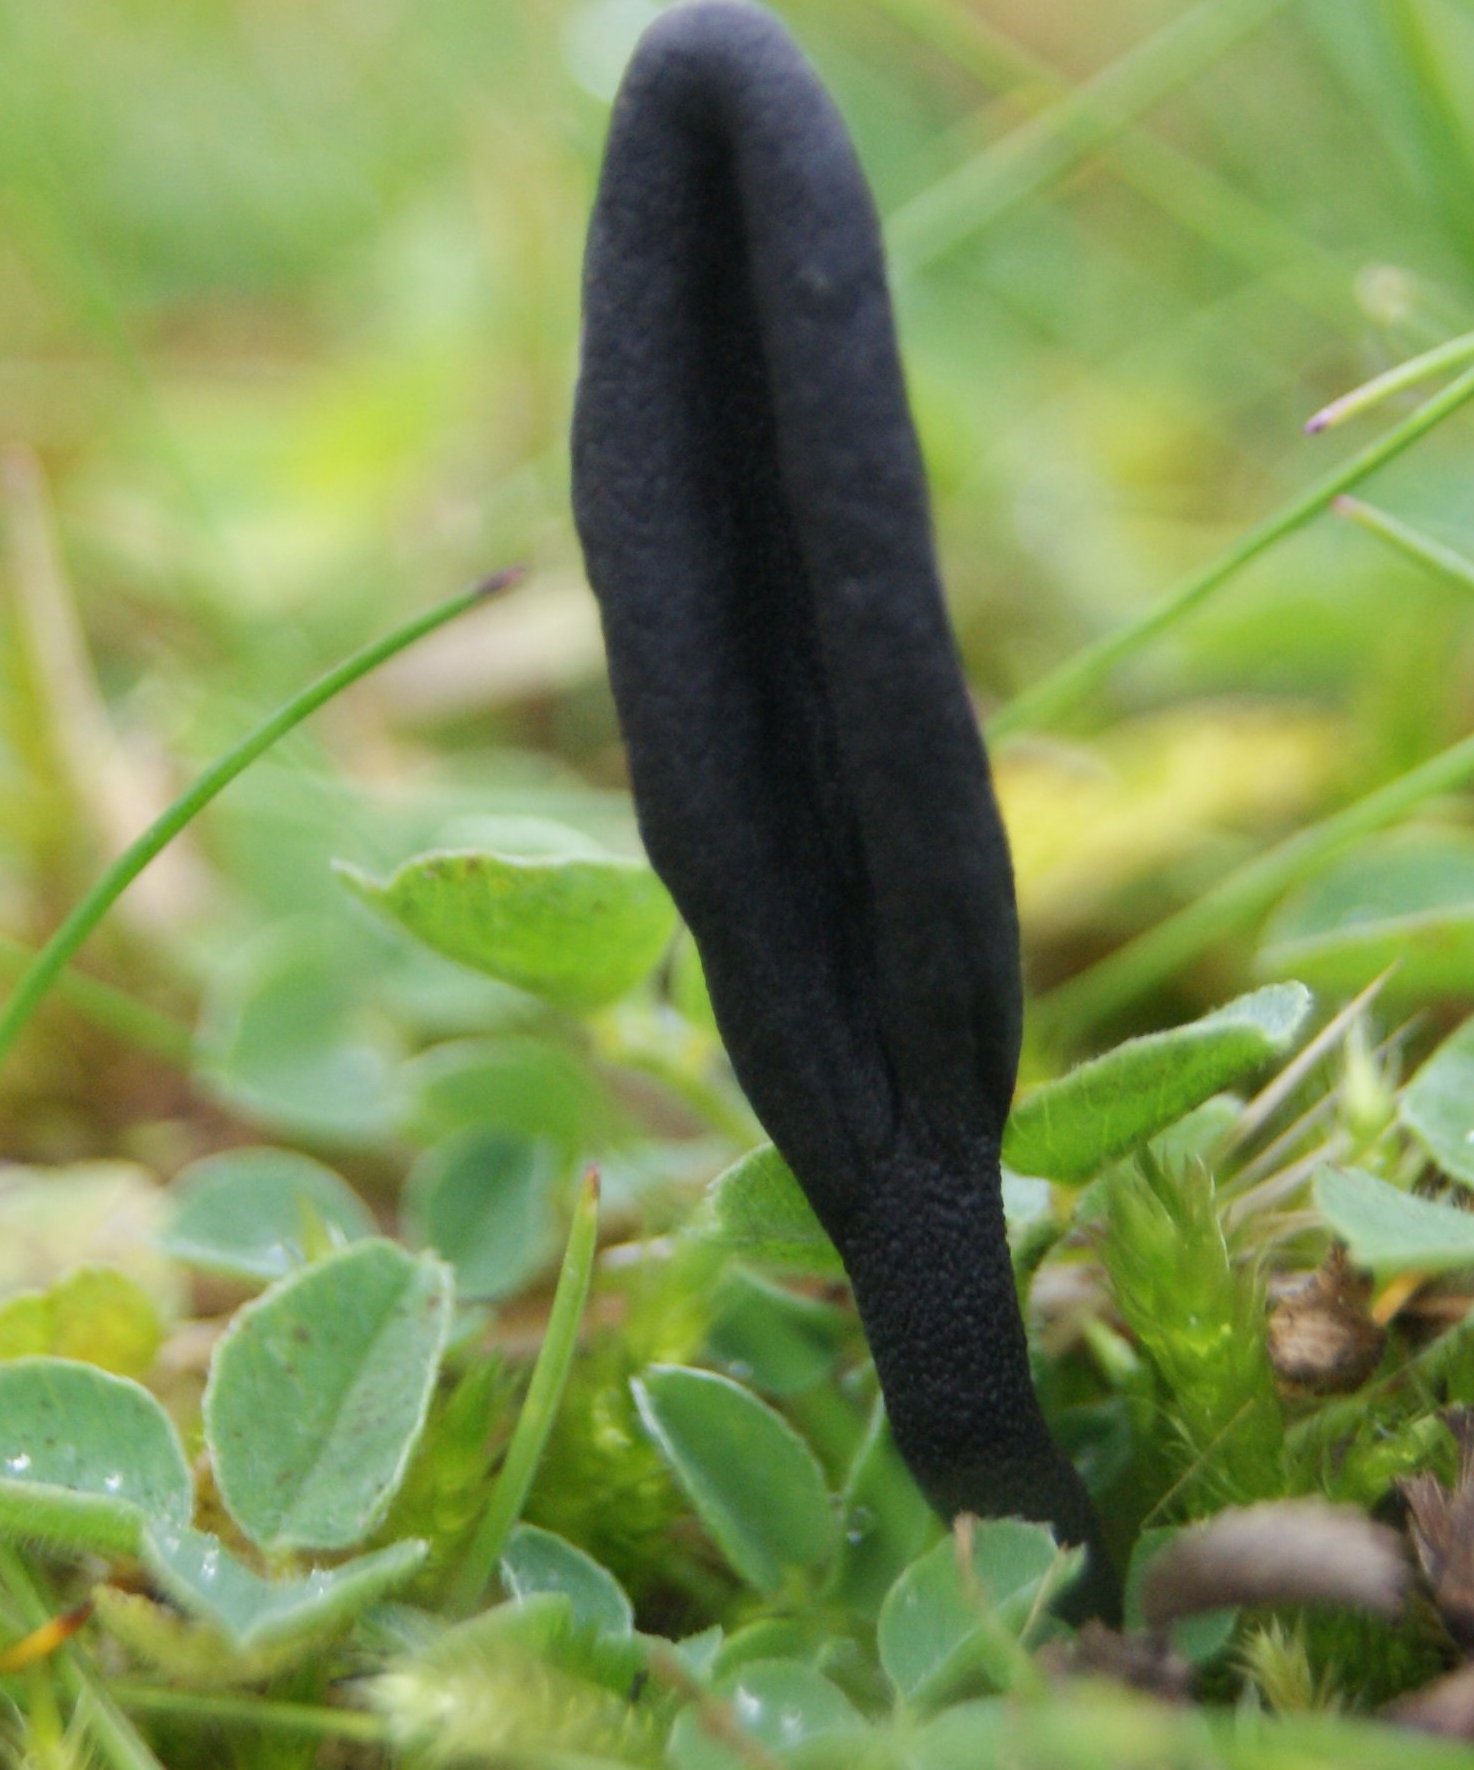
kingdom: Fungi
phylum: Ascomycota
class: Geoglossomycetes
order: Geoglossales
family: Geoglossaceae
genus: Geoglossum
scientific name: Geoglossum cookeianum
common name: bred jordtunge
